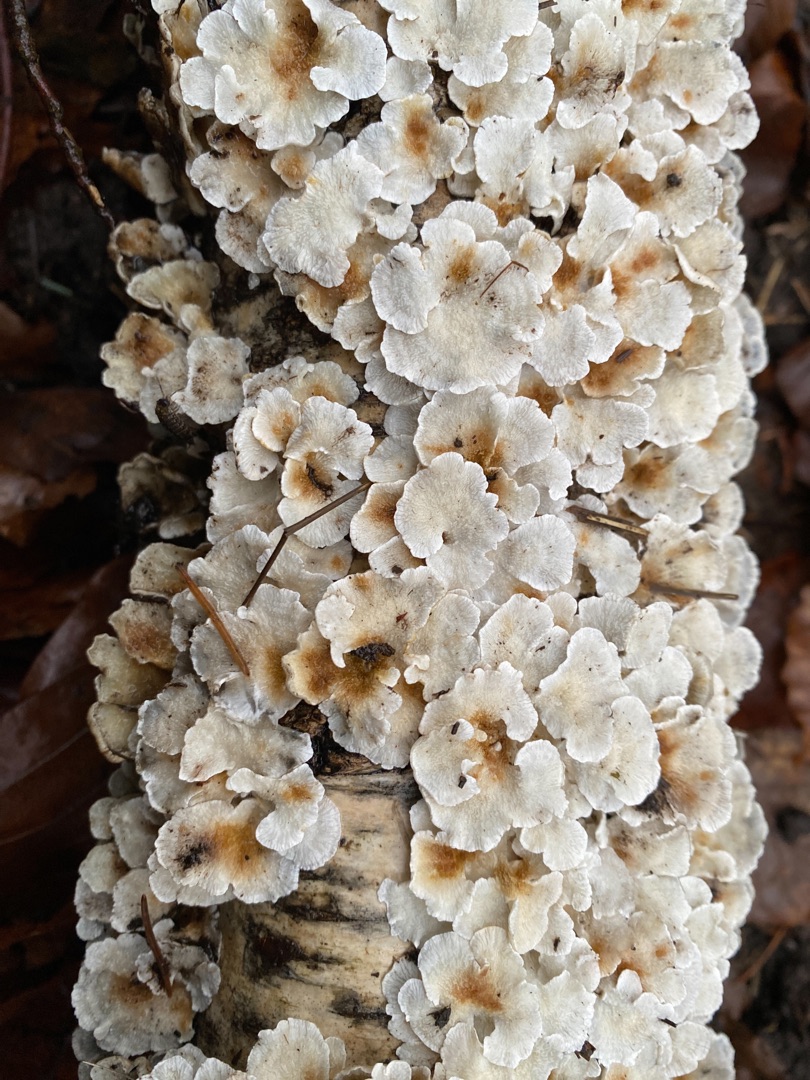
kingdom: Fungi
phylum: Basidiomycota
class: Agaricomycetes
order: Amylocorticiales
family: Amylocorticiaceae
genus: Plicaturopsis
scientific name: Plicaturopsis crispa
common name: Krusblad
